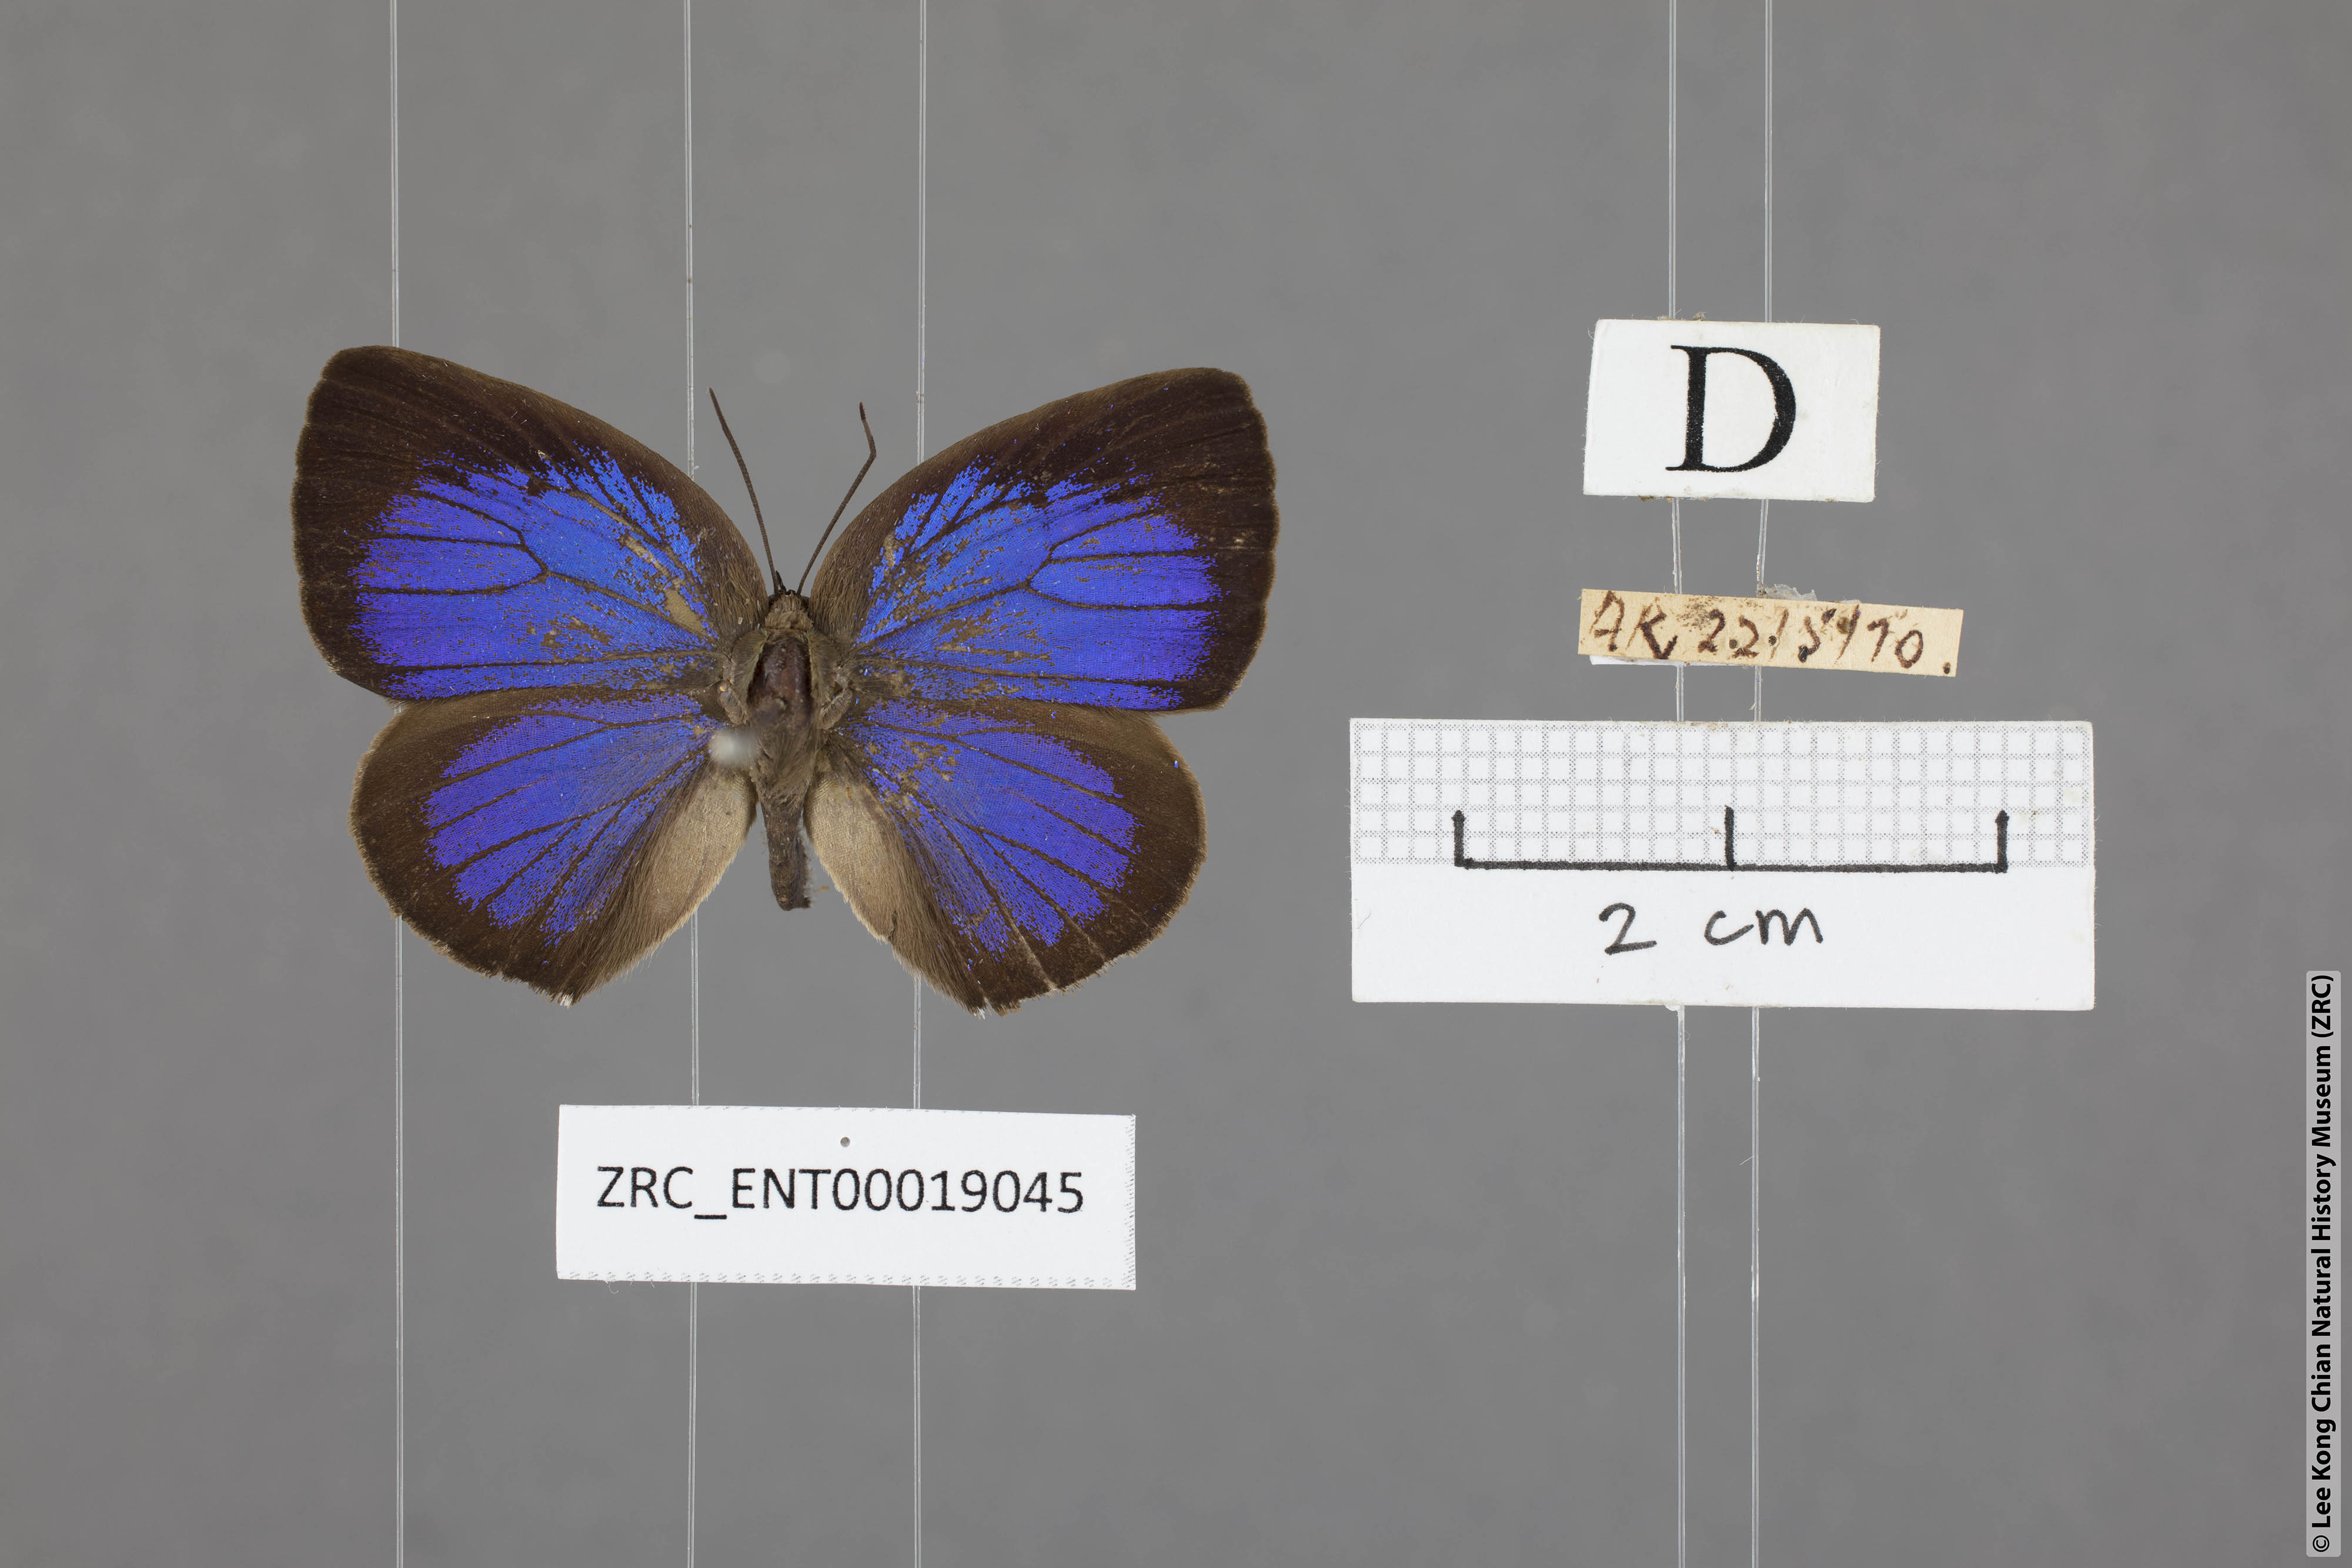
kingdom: Animalia
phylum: Arthropoda
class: Insecta
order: Lepidoptera
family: Lycaenidae
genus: Arhopala
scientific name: Arhopala agesilaus
